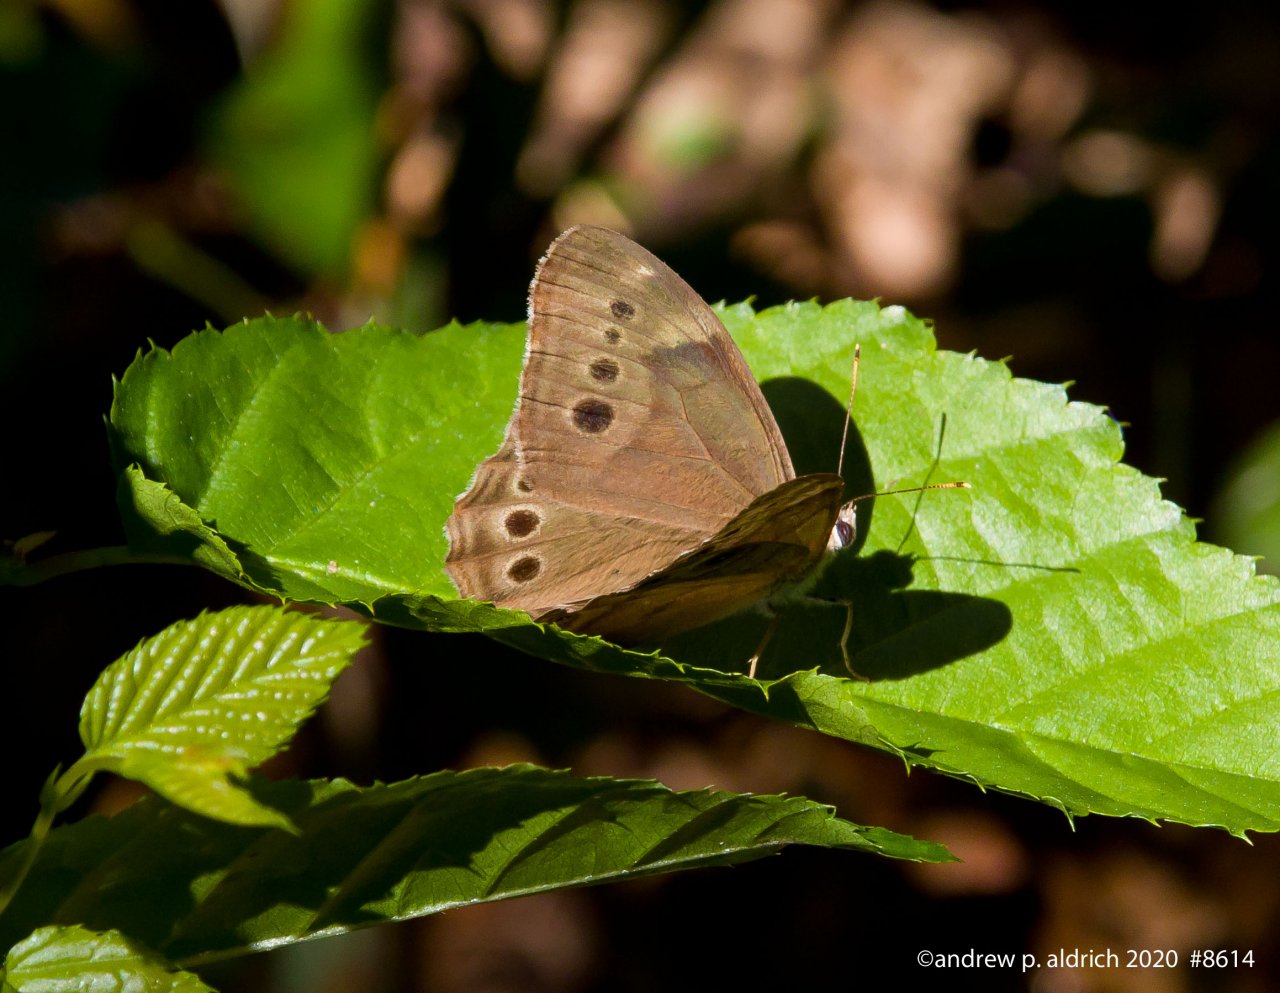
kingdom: Animalia
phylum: Arthropoda
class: Insecta
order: Lepidoptera
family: Nymphalidae
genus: Lethe
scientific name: Lethe anthedon
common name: Northern Pearly-Eye
